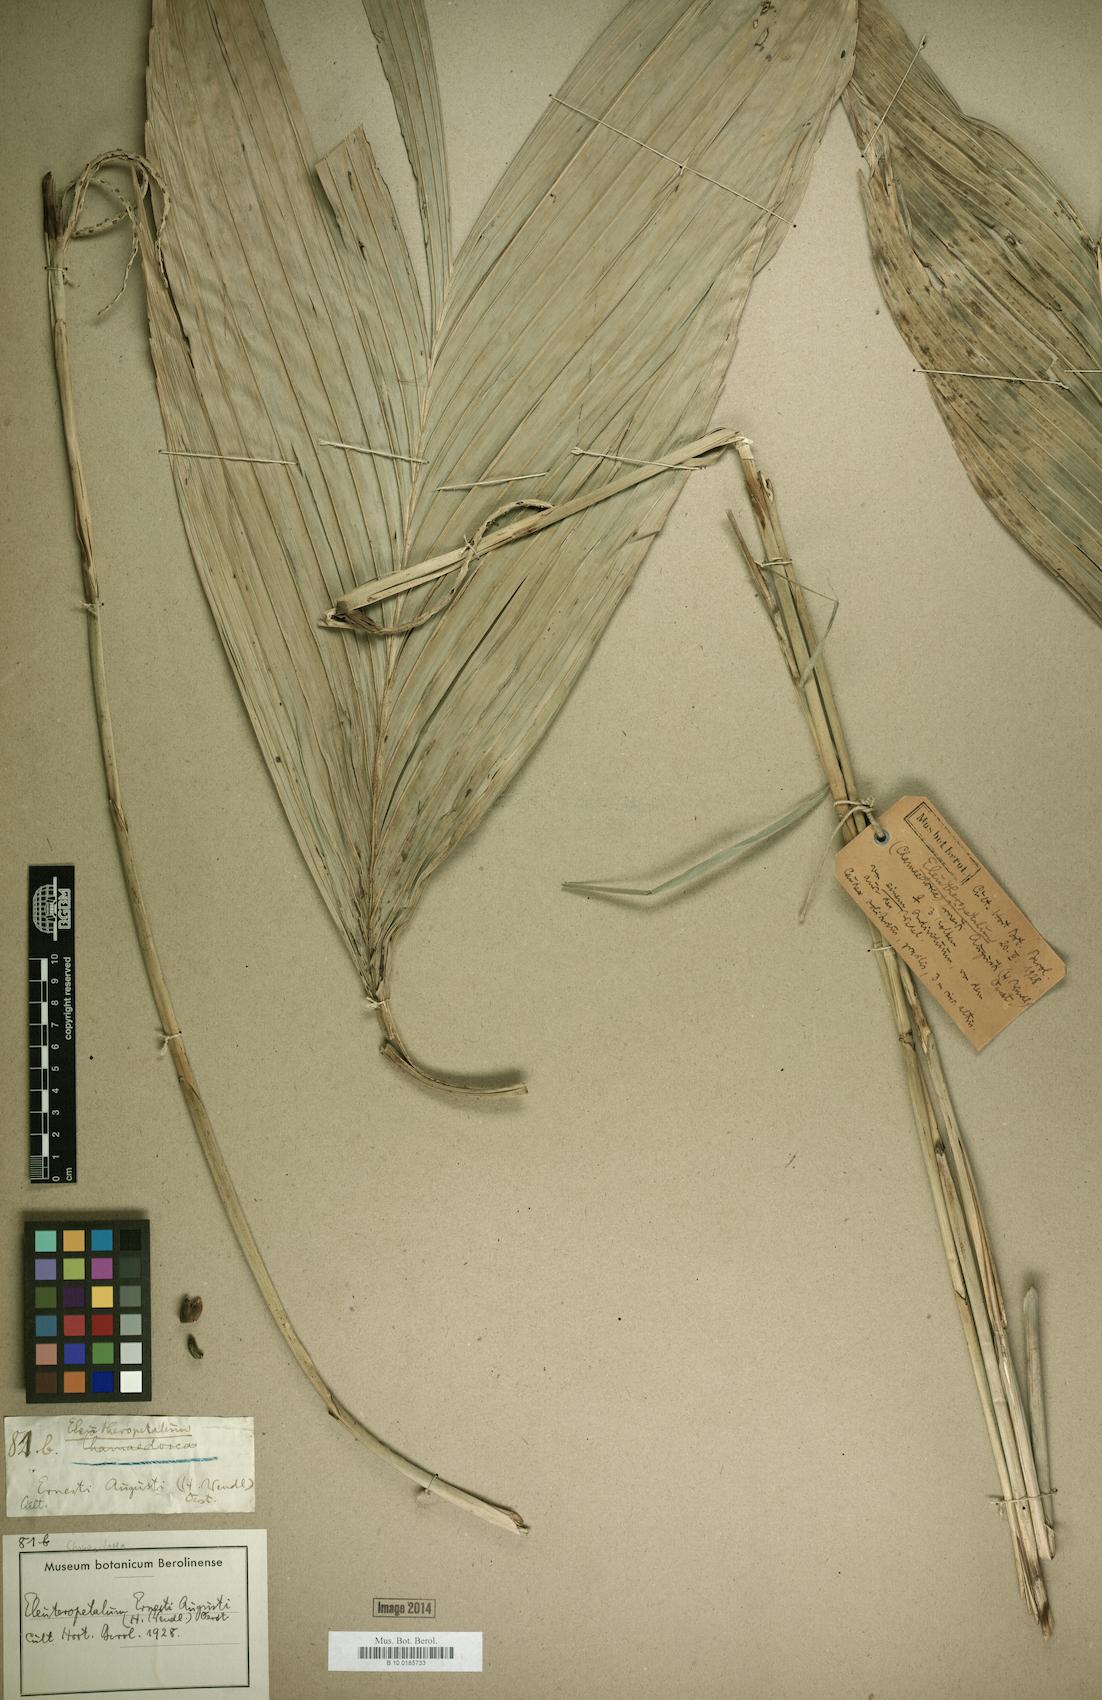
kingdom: Plantae
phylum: Tracheophyta
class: Liliopsida
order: Arecales
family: Arecaceae
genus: Chamaedorea
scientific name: Chamaedorea ernesti-augusti
